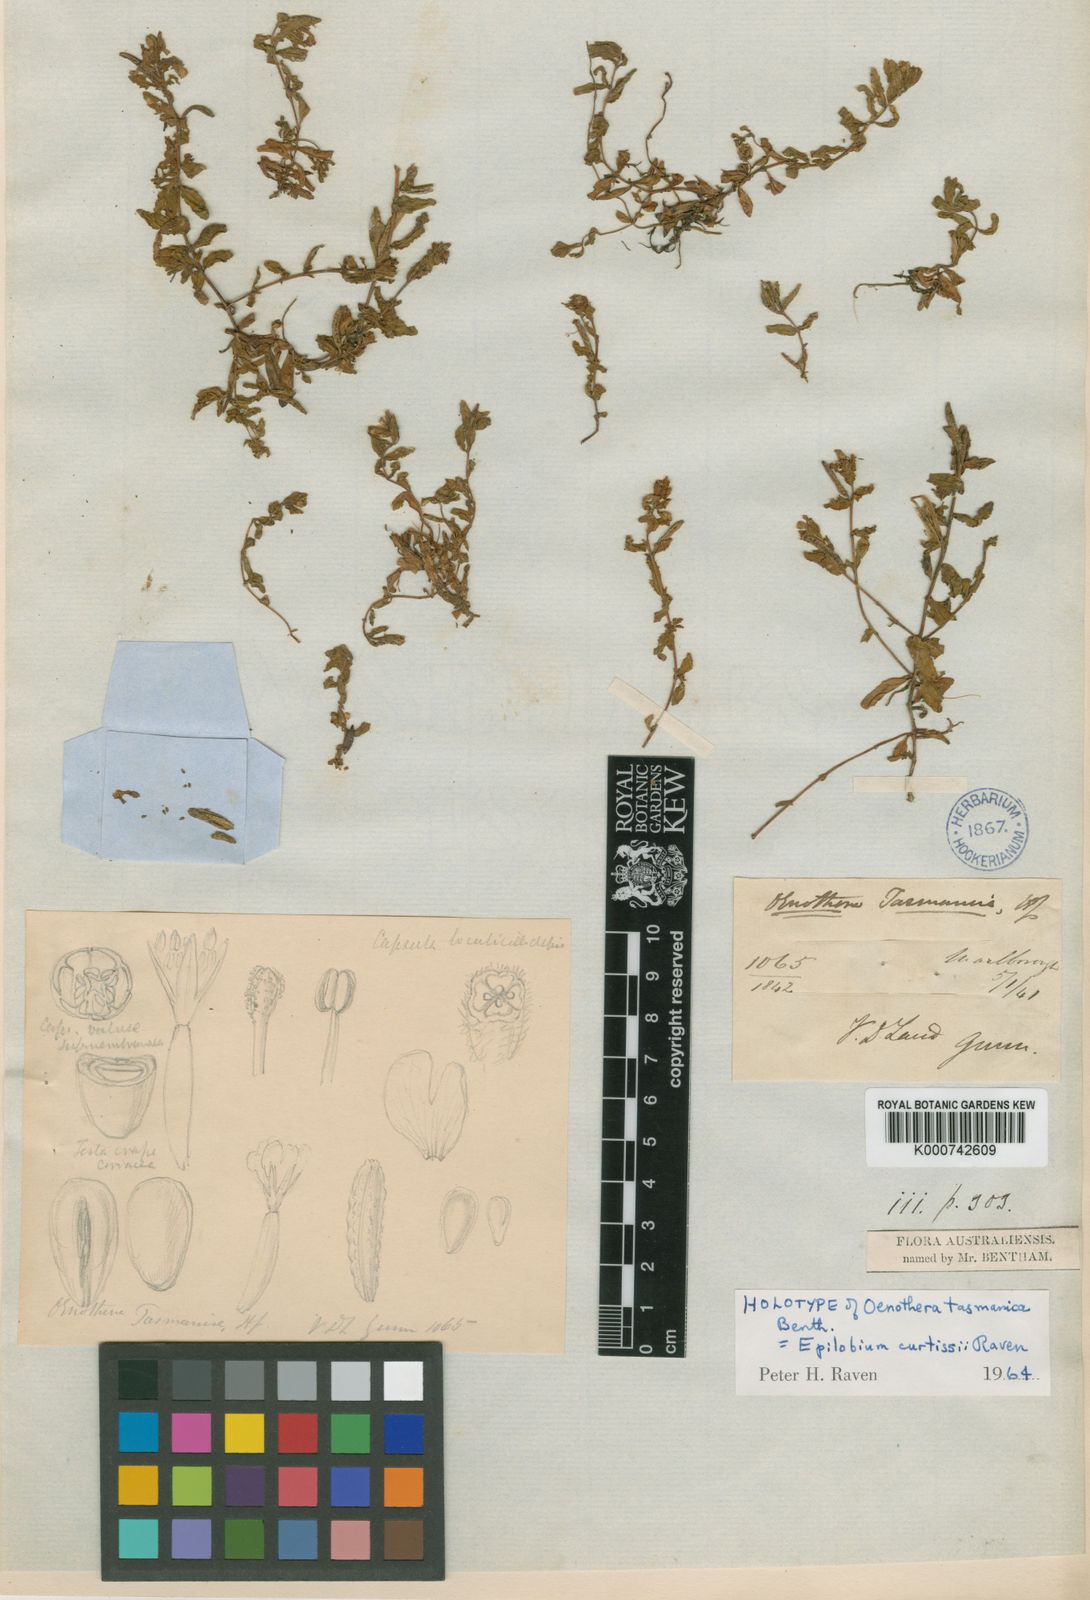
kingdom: Plantae
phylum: Tracheophyta
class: Magnoliopsida
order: Myrtales
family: Onagraceae
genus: Epilobium
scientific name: Epilobium curtisiae
